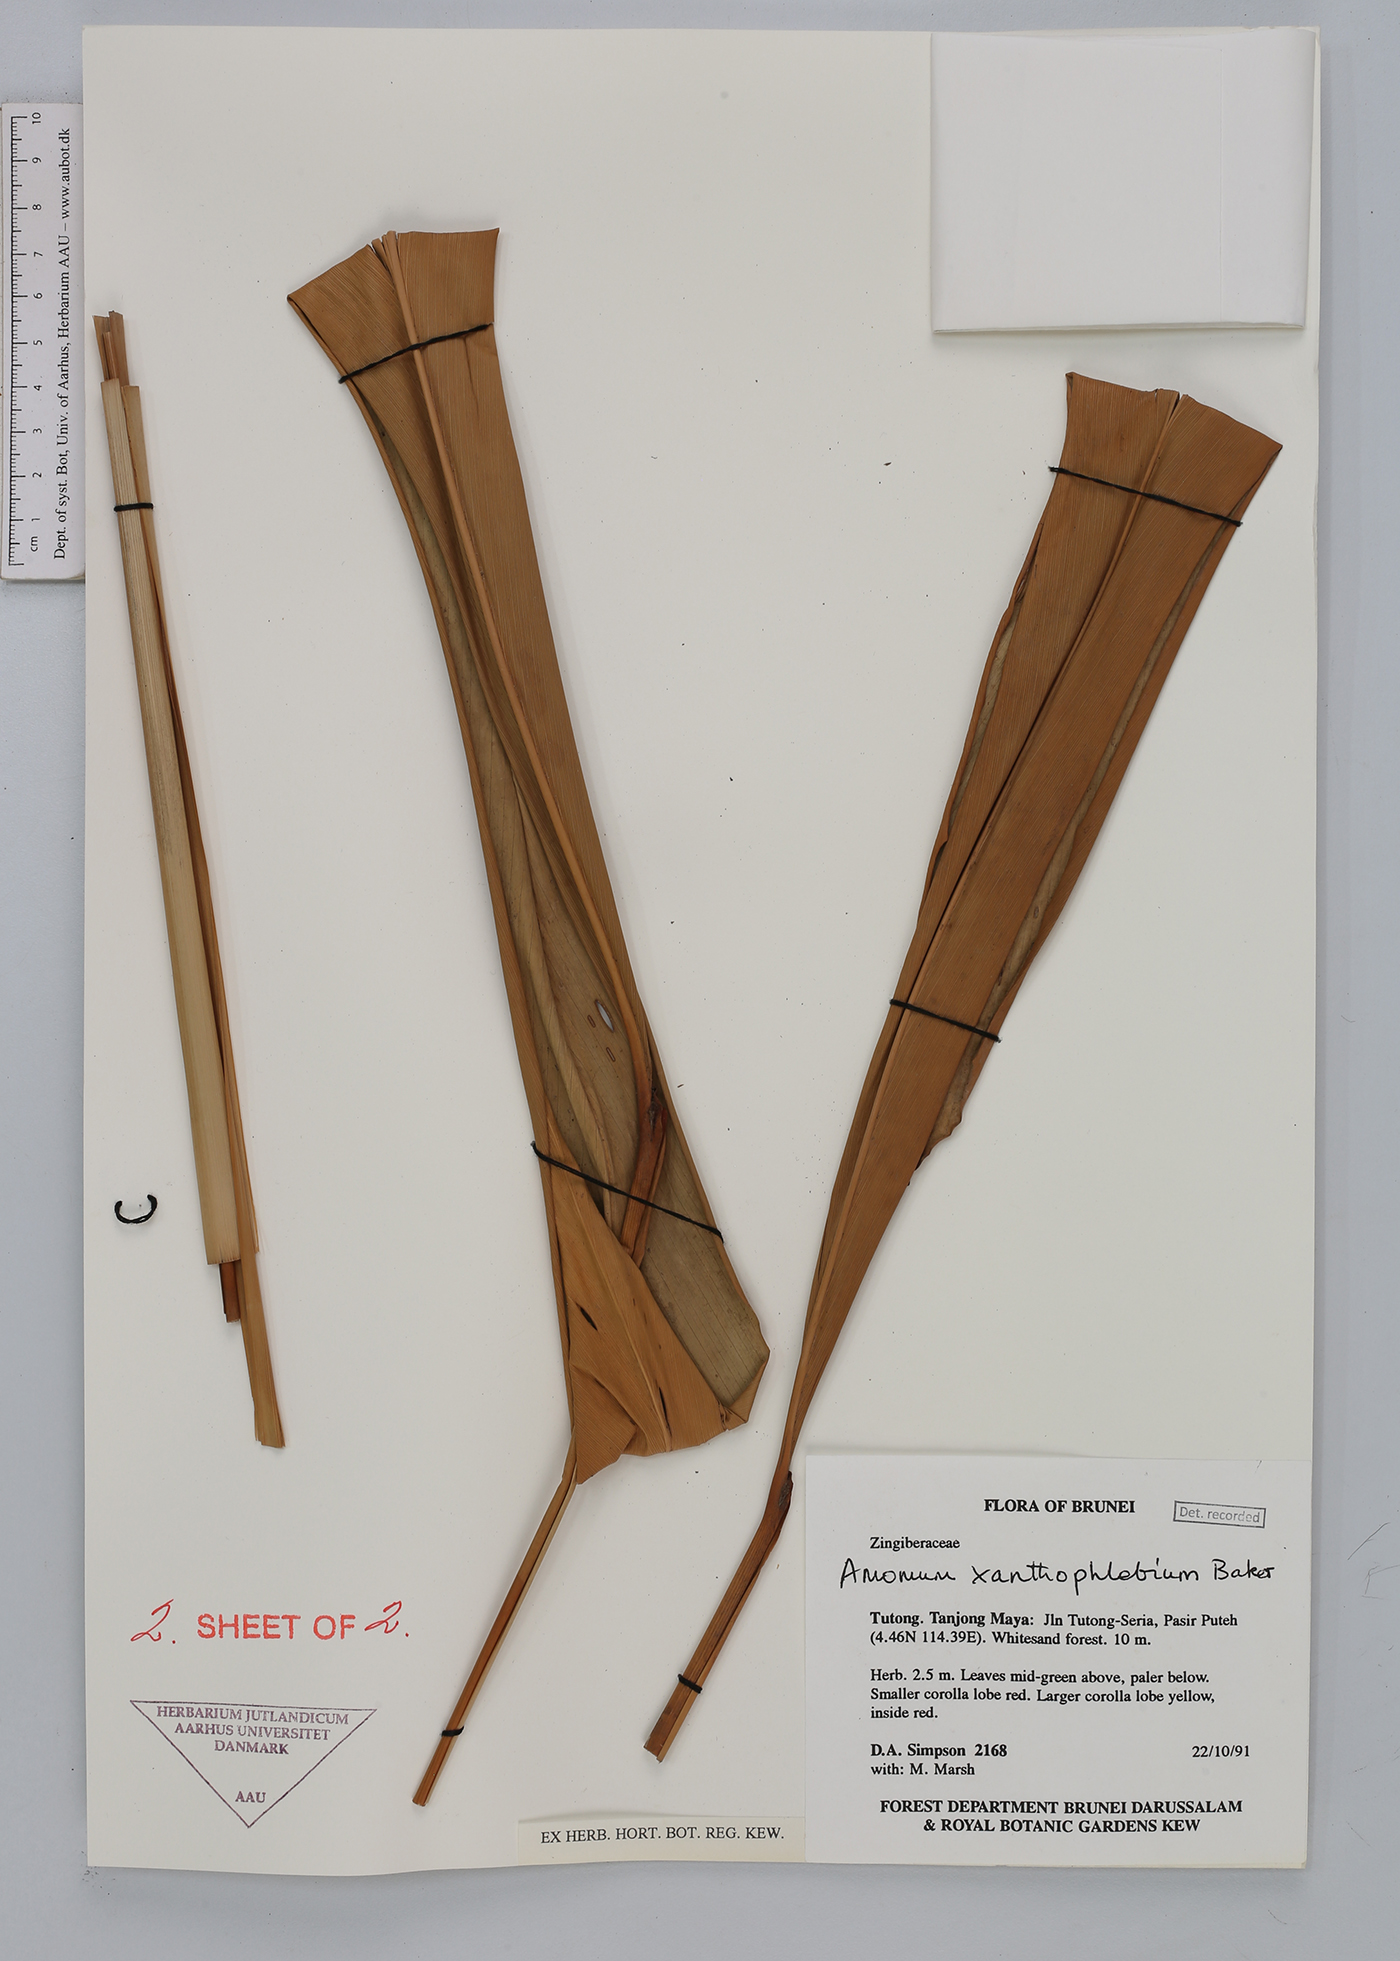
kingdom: Plantae
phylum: Tracheophyta
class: Liliopsida
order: Zingiberales
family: Zingiberaceae
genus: Conamomum
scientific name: Conamomum xanthophlebium
